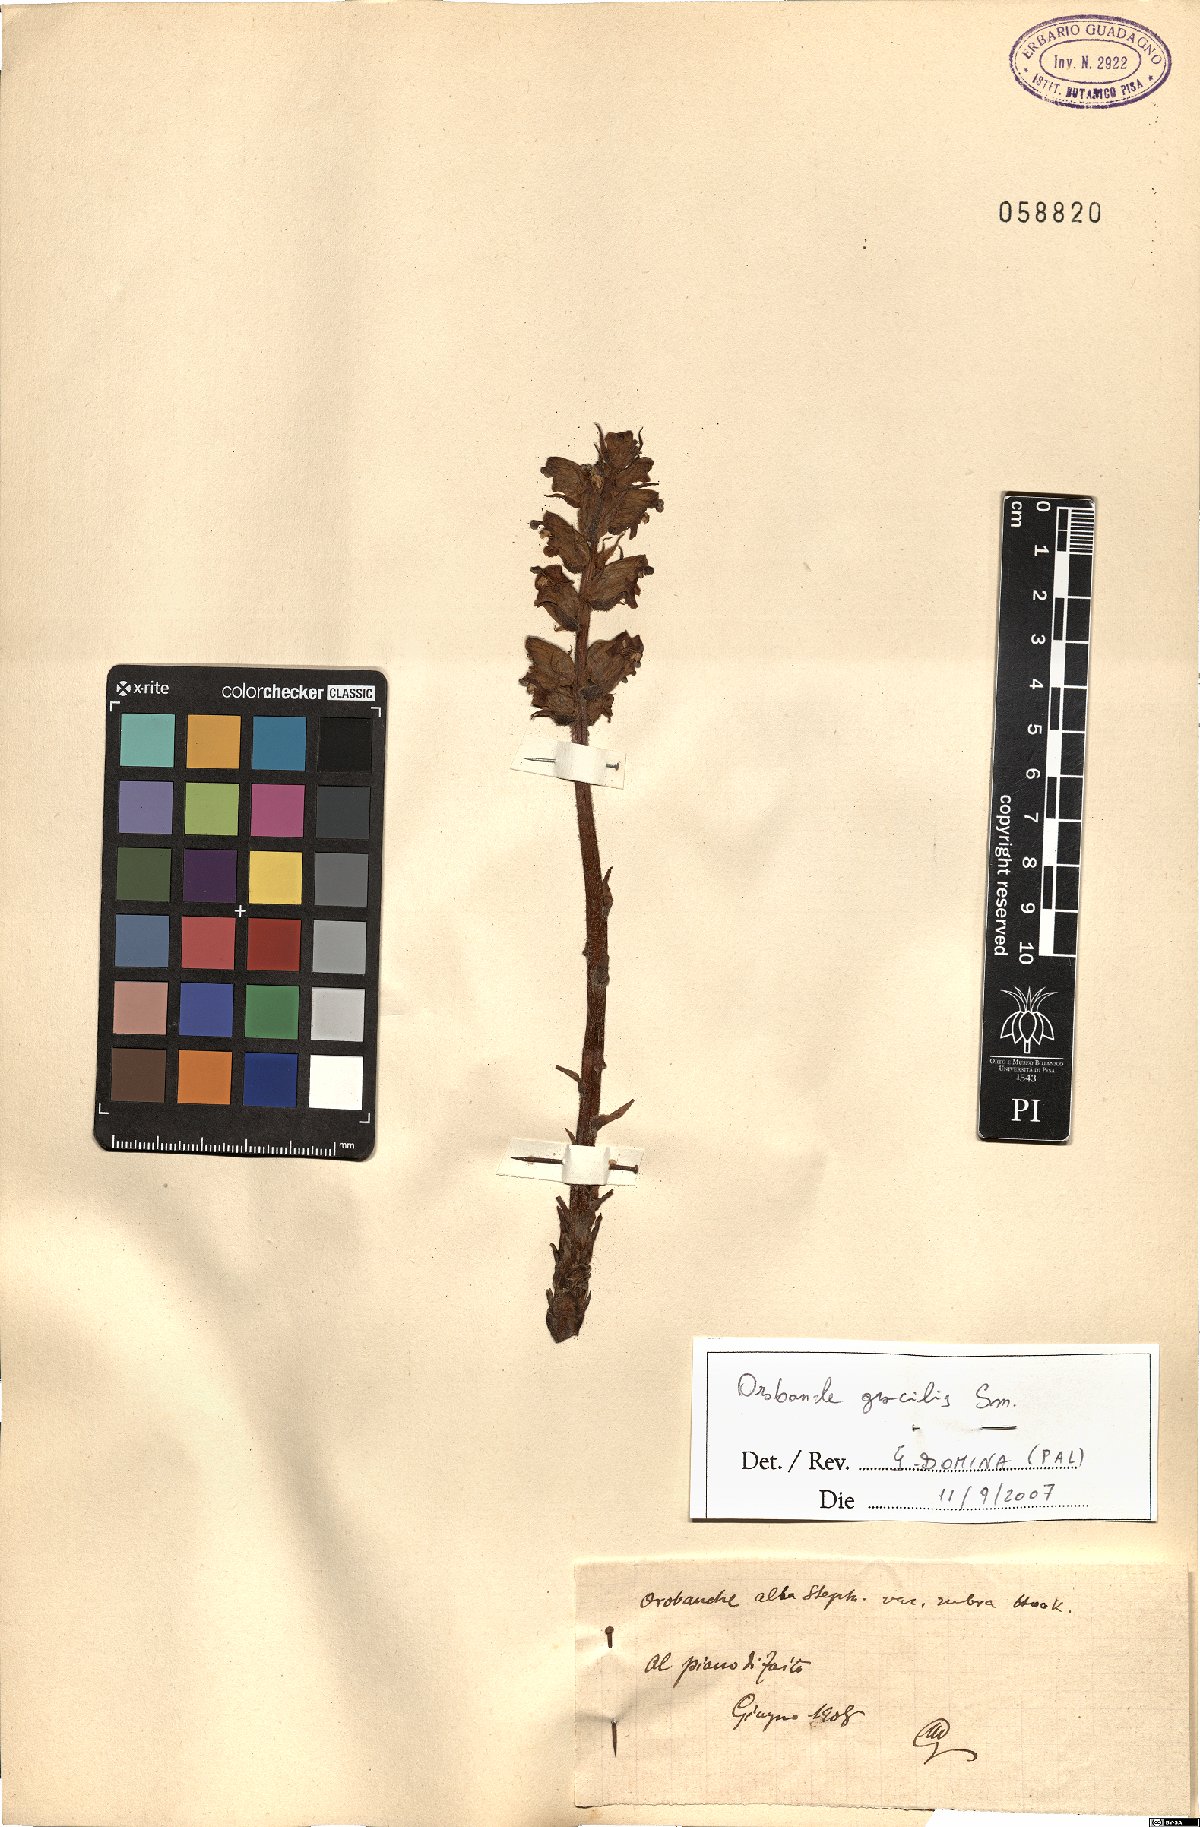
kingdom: Plantae
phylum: Tracheophyta
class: Magnoliopsida
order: Lamiales
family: Orobanchaceae
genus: Orobanche
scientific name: Orobanche gracilis
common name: Slender broomrape
